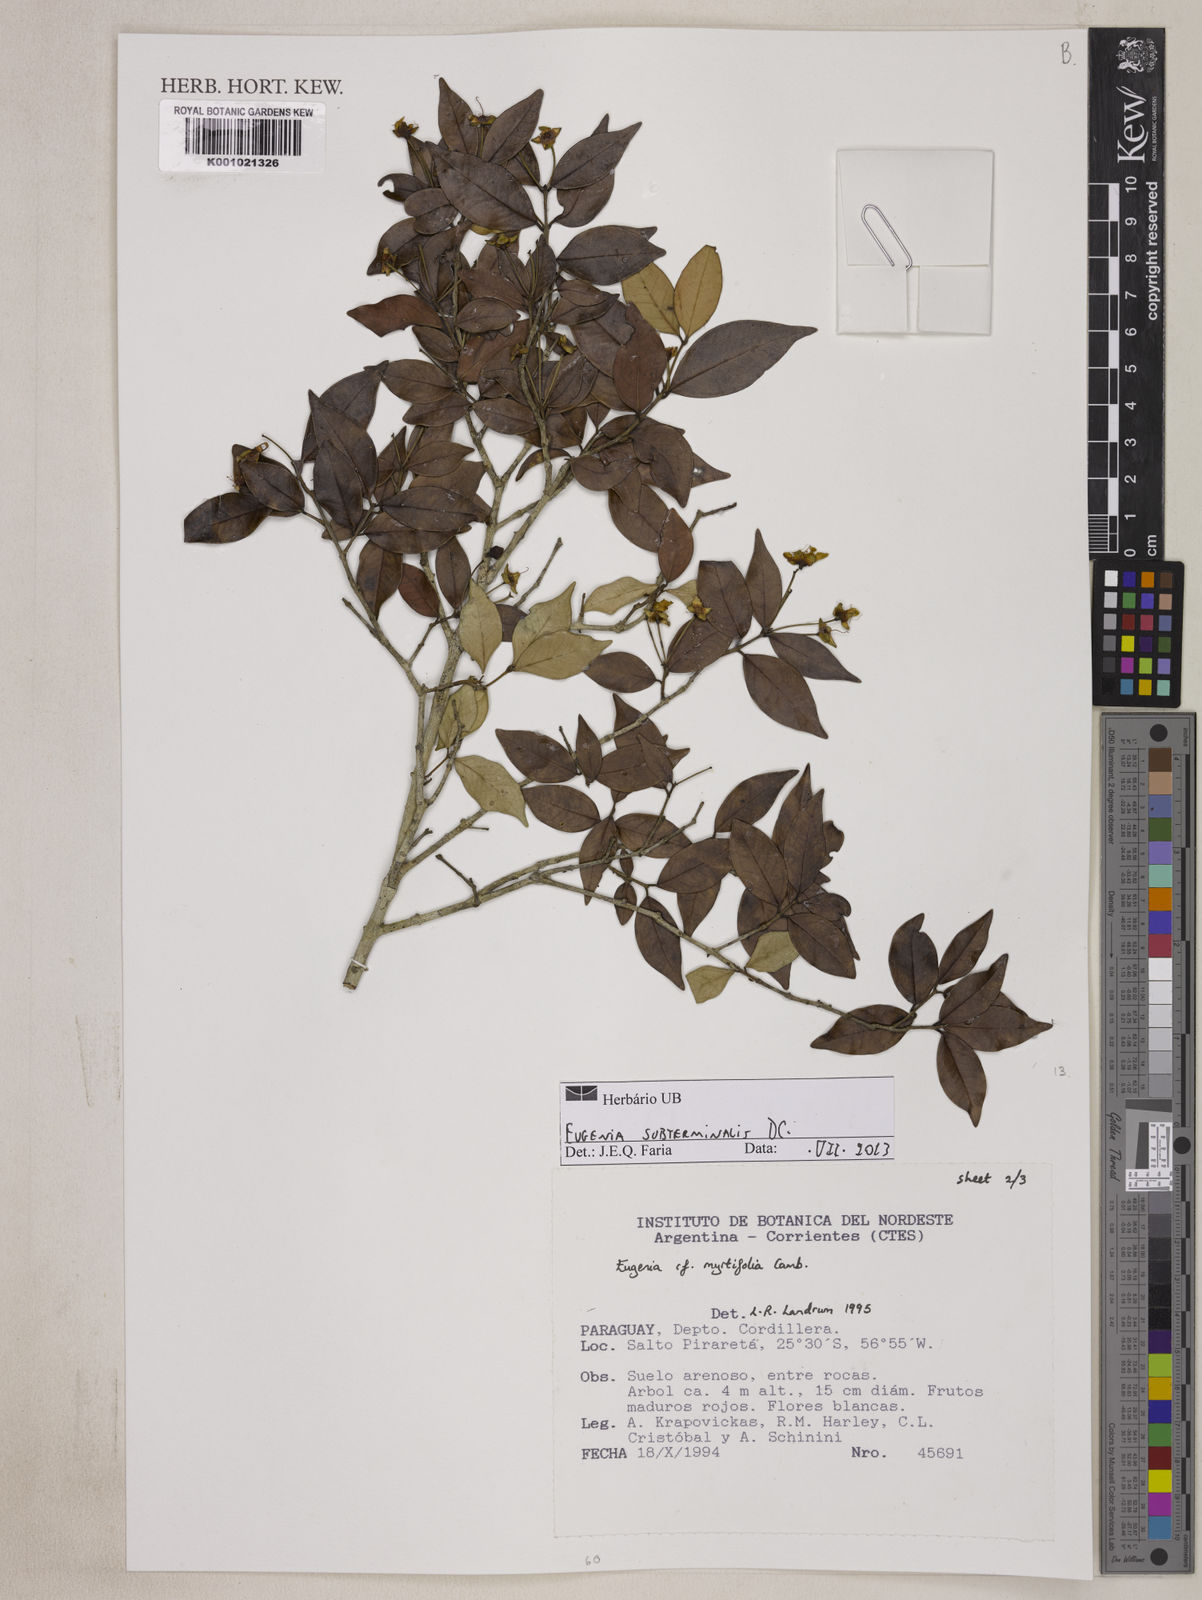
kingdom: Plantae
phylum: Tracheophyta
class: Magnoliopsida
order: Myrtales
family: Myrtaceae
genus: Eugenia
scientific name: Eugenia subterminalis
